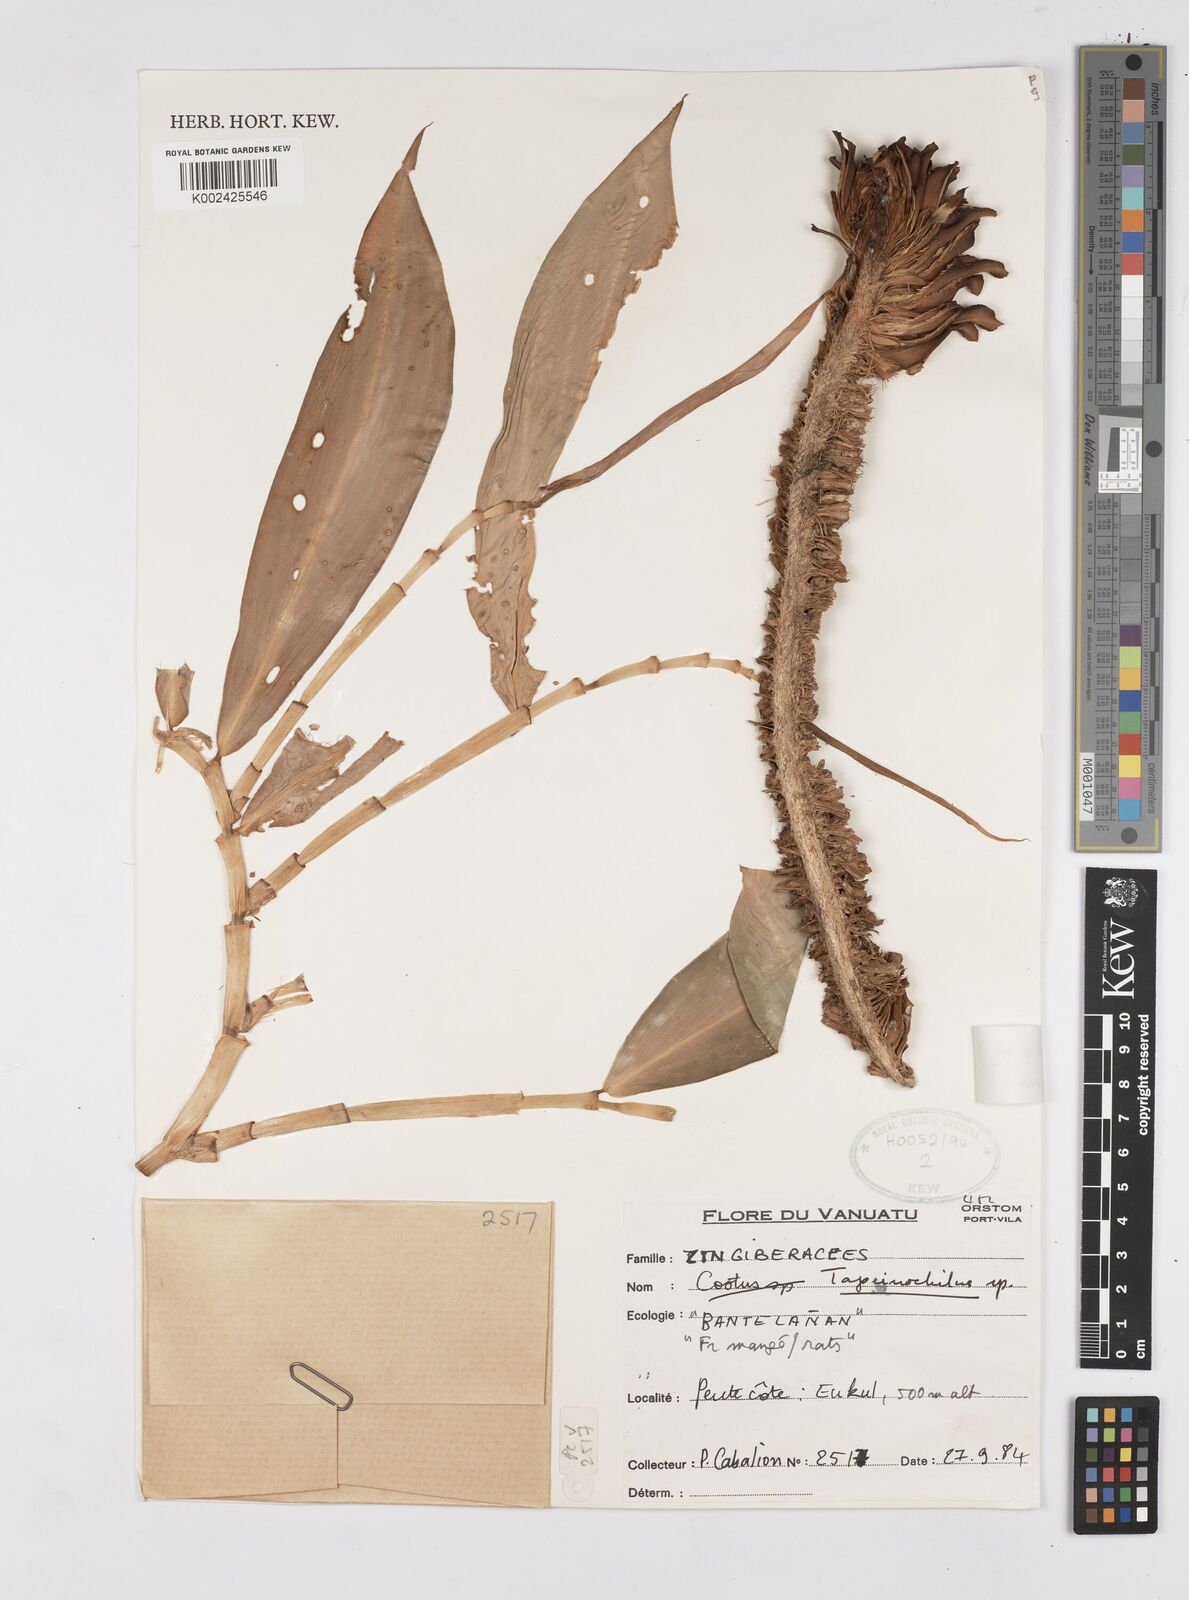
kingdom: Plantae
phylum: Tracheophyta
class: Liliopsida
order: Zingiberales
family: Costaceae
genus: Tapeinochilos
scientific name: Tapeinochilos
